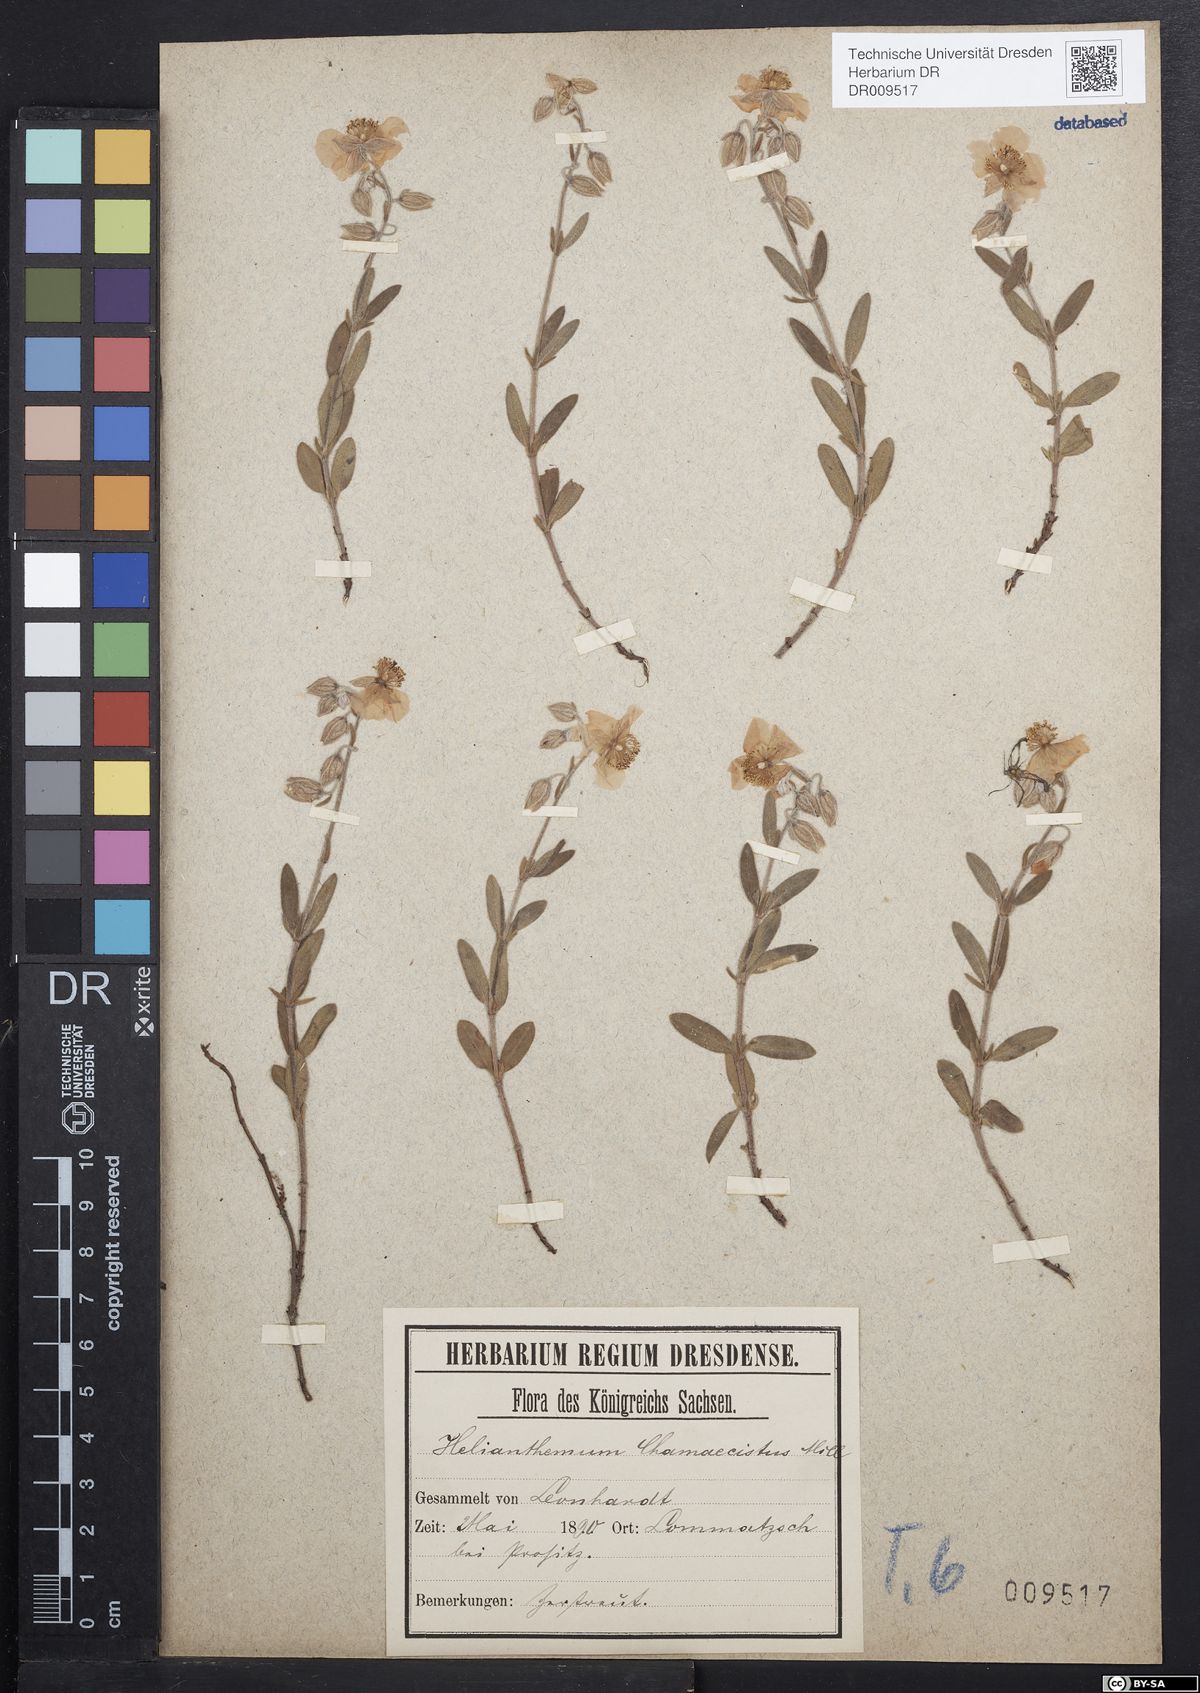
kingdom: Plantae
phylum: Tracheophyta
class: Magnoliopsida
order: Malvales
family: Cistaceae
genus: Helianthemum
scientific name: Helianthemum nummularium
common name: Common rock-rose
